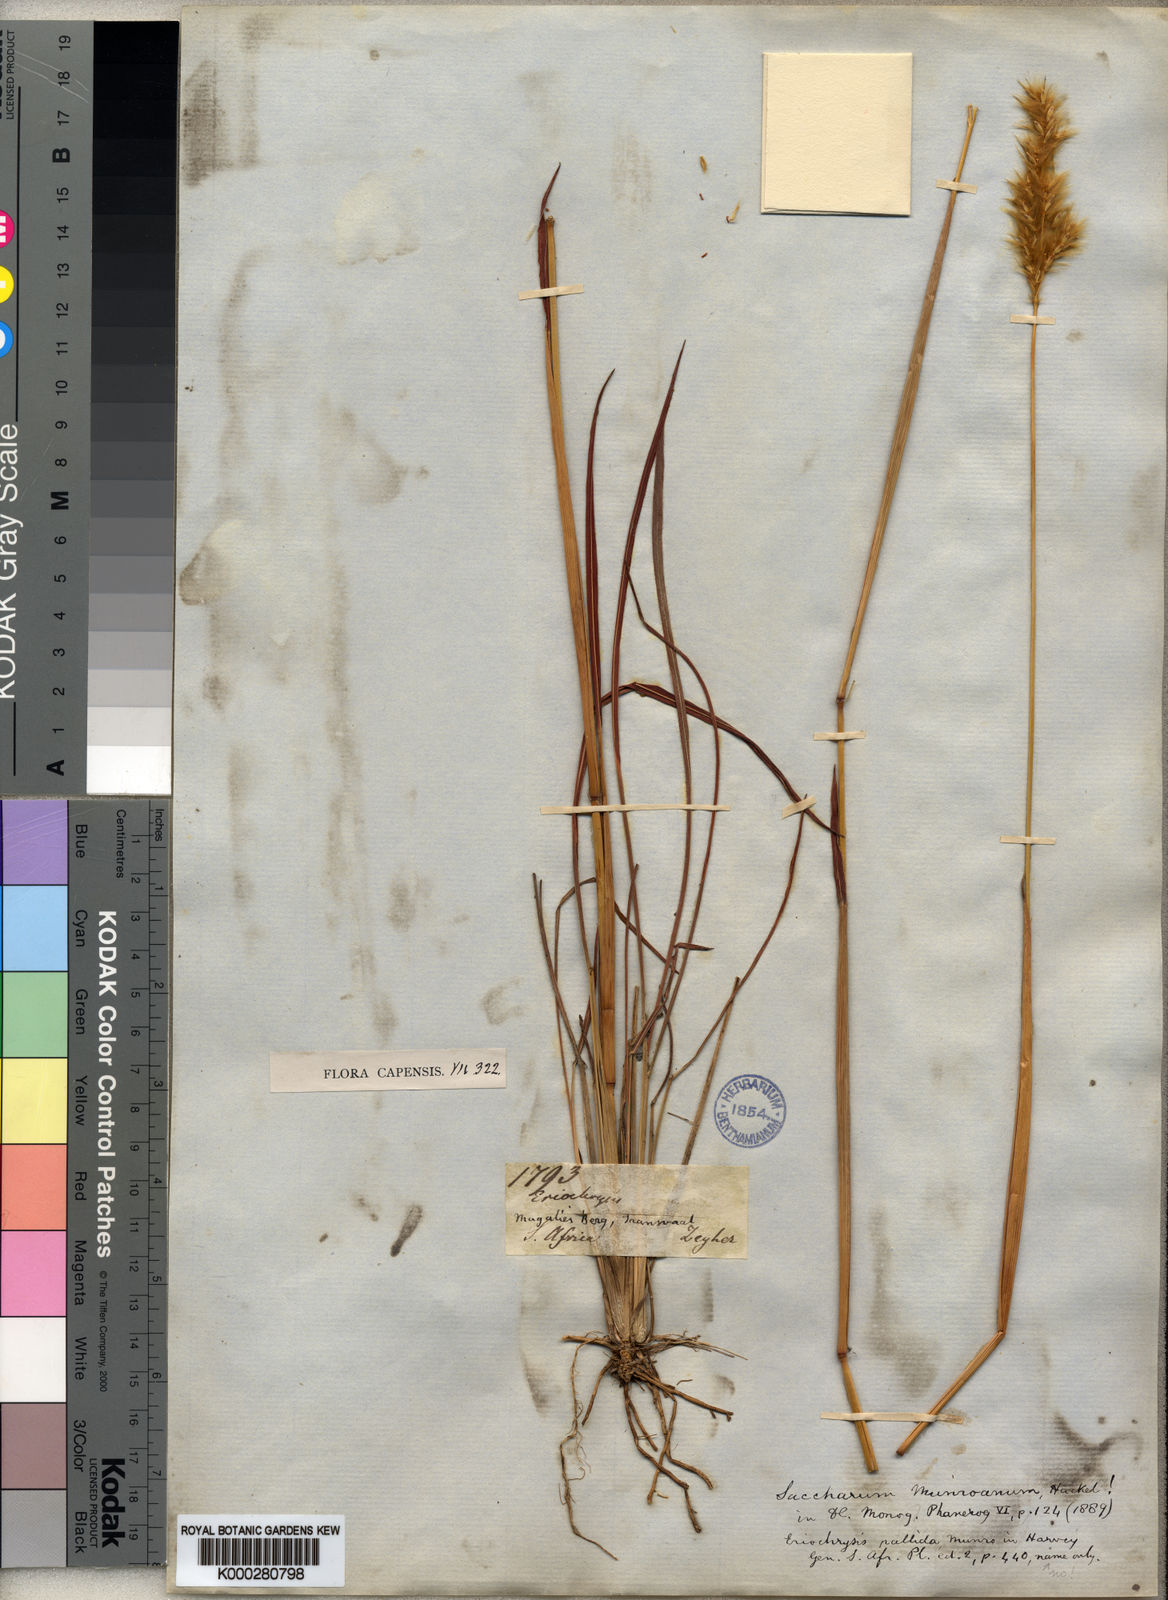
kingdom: Plantae
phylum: Tracheophyta
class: Liliopsida
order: Poales
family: Poaceae
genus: Eriochrysis
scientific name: Eriochrysis pallida
